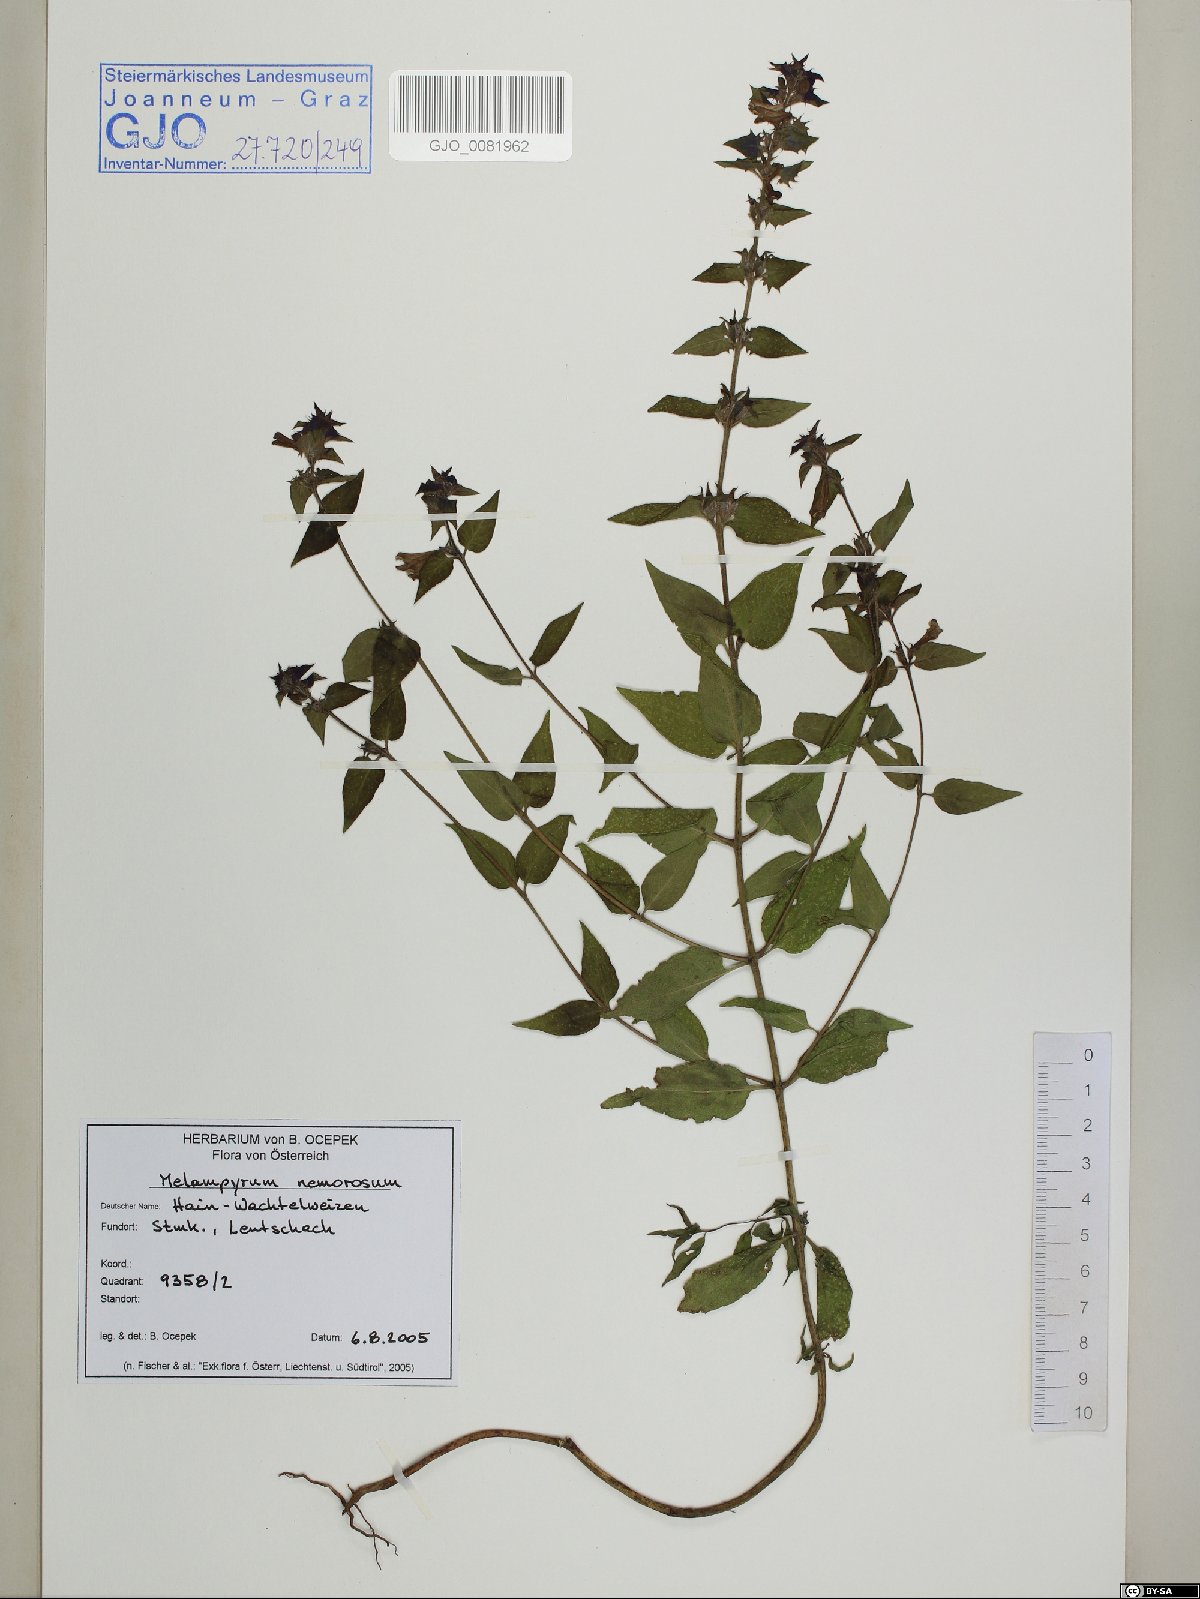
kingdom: Plantae
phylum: Tracheophyta
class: Magnoliopsida
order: Lamiales
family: Orobanchaceae
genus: Melampyrum
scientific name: Melampyrum nemorosum
